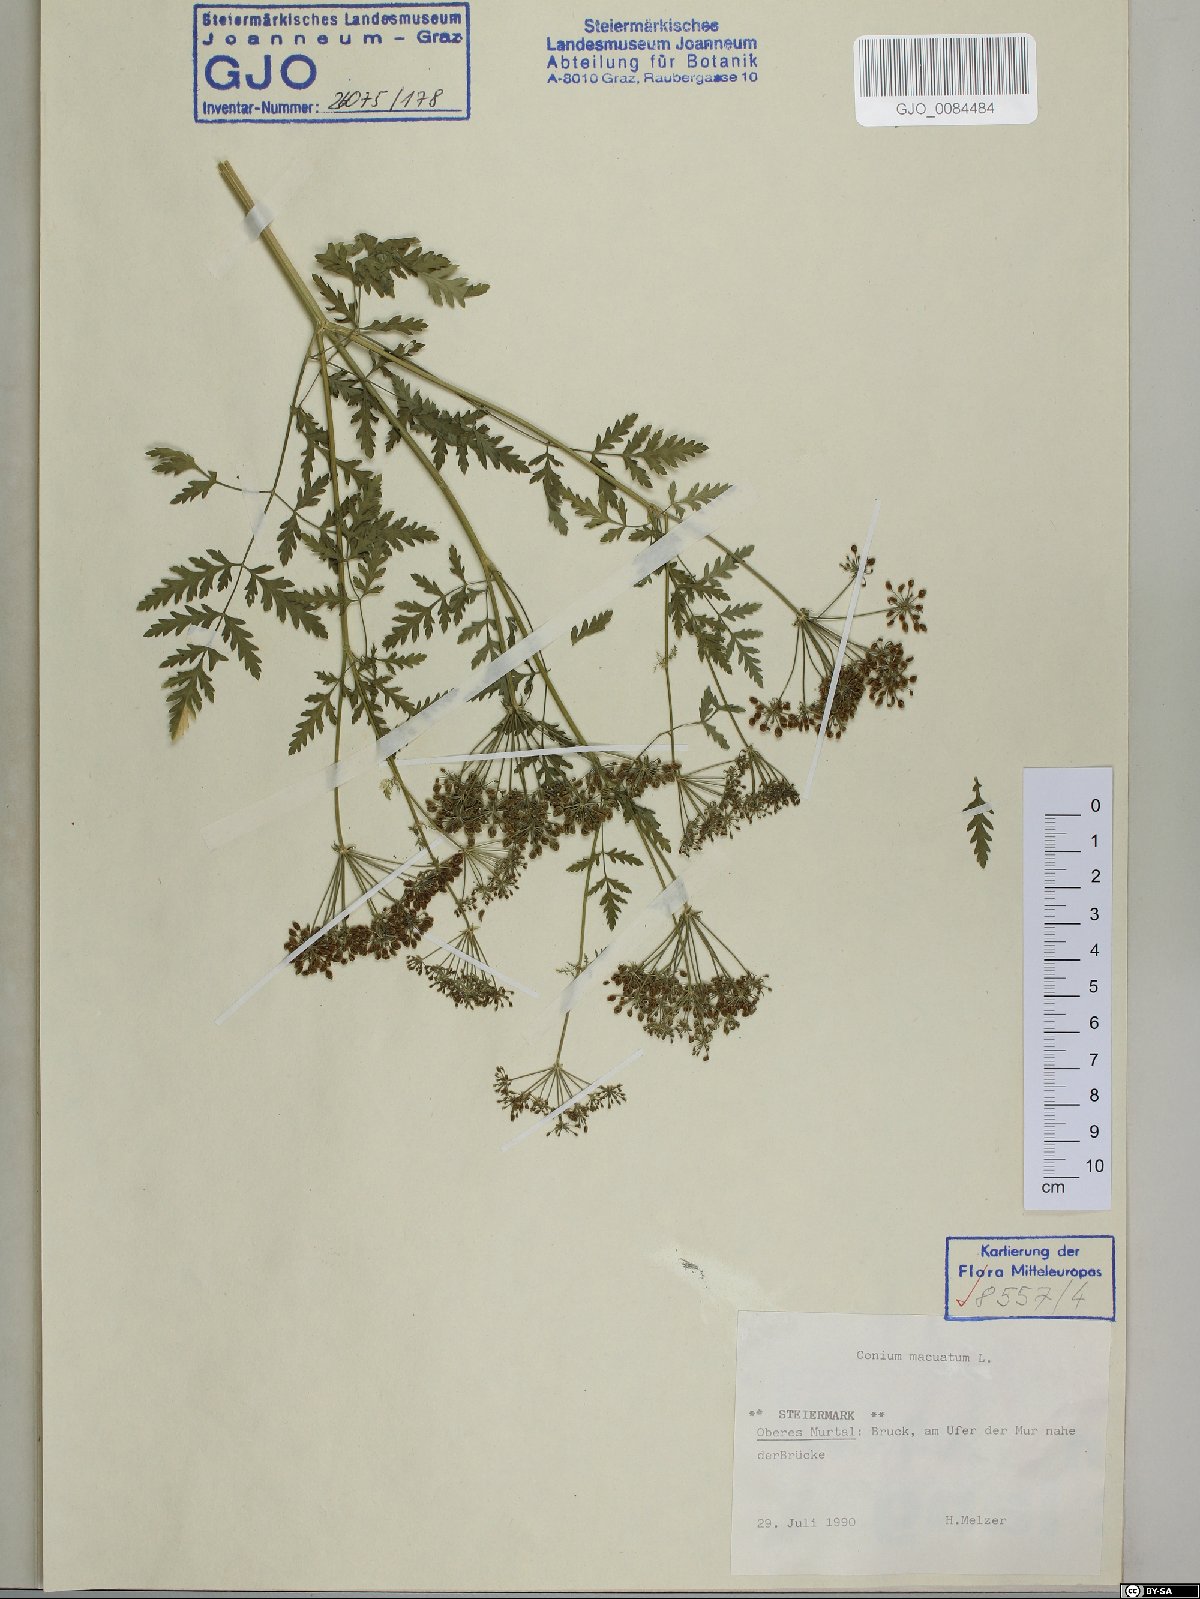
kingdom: Plantae
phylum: Tracheophyta
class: Magnoliopsida
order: Apiales
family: Apiaceae
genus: Conium
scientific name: Conium maculatum
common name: Hemlock
